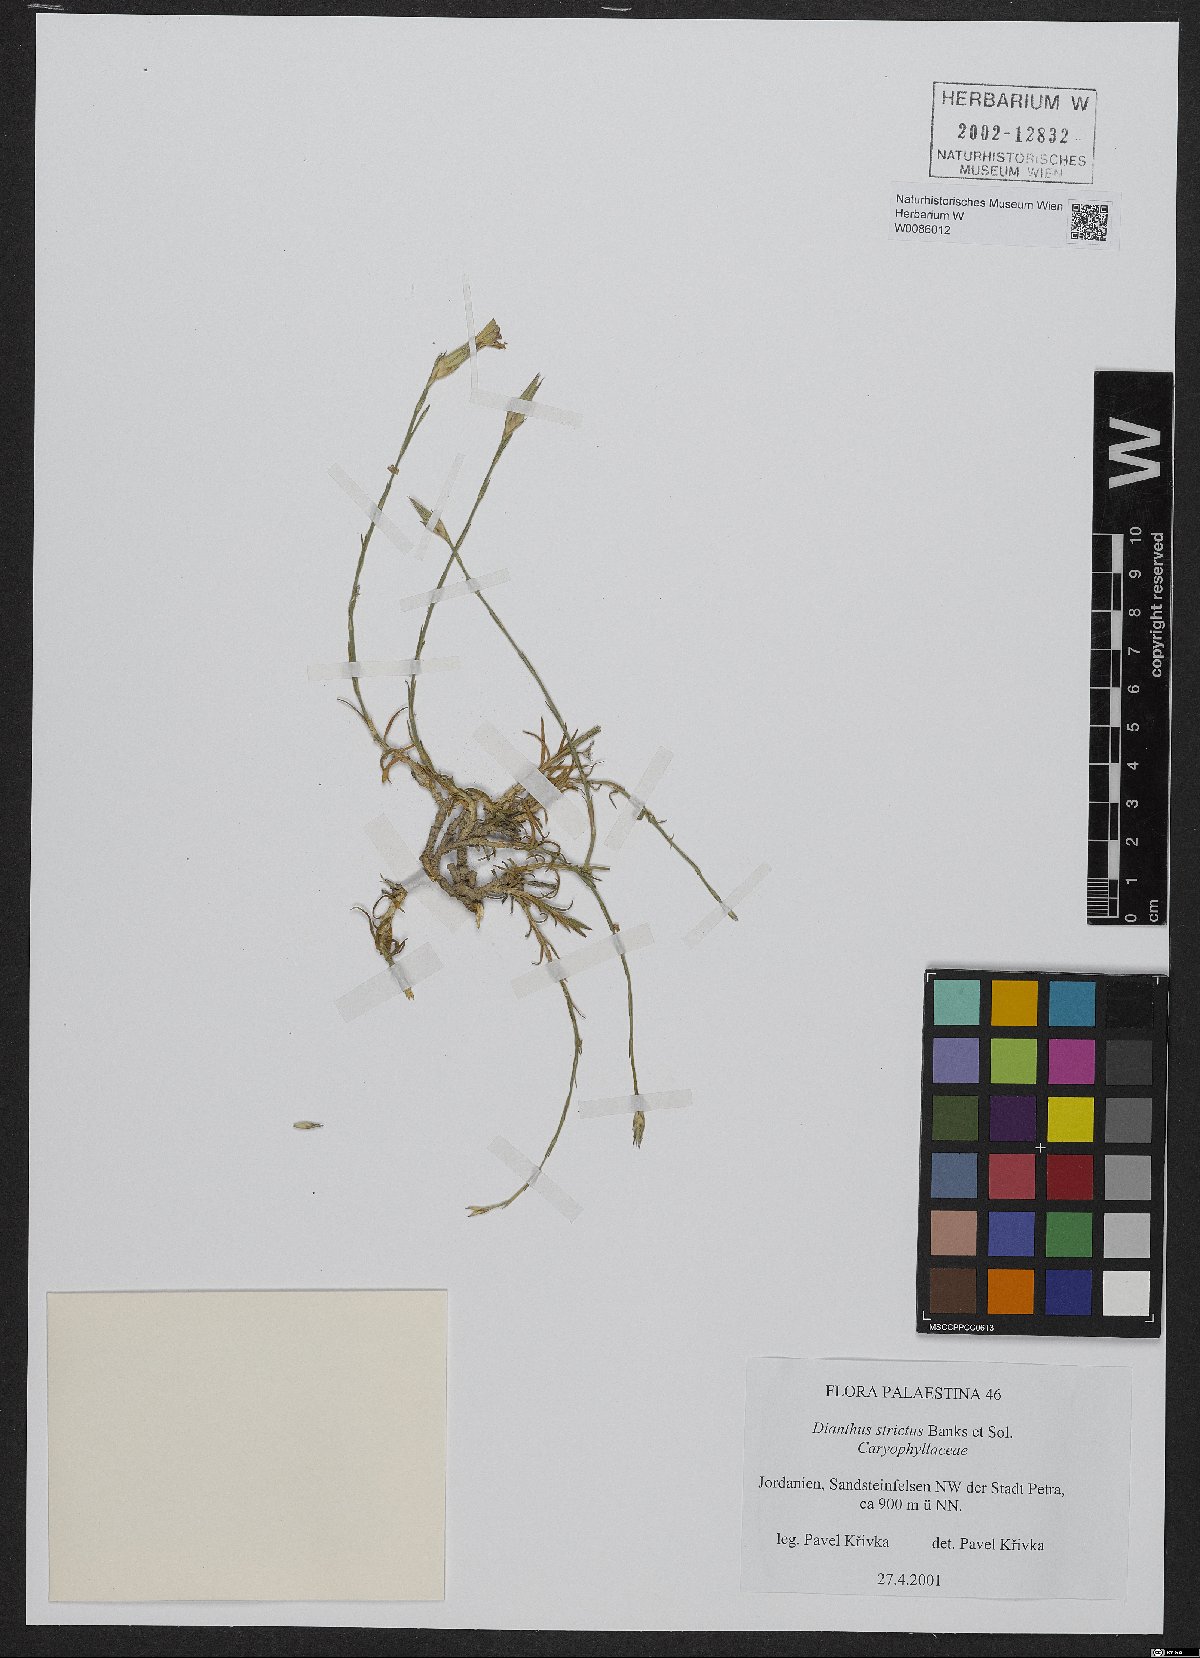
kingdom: Plantae
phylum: Tracheophyta
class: Magnoliopsida
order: Caryophyllales
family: Caryophyllaceae
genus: Dianthus
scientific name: Dianthus strictus
